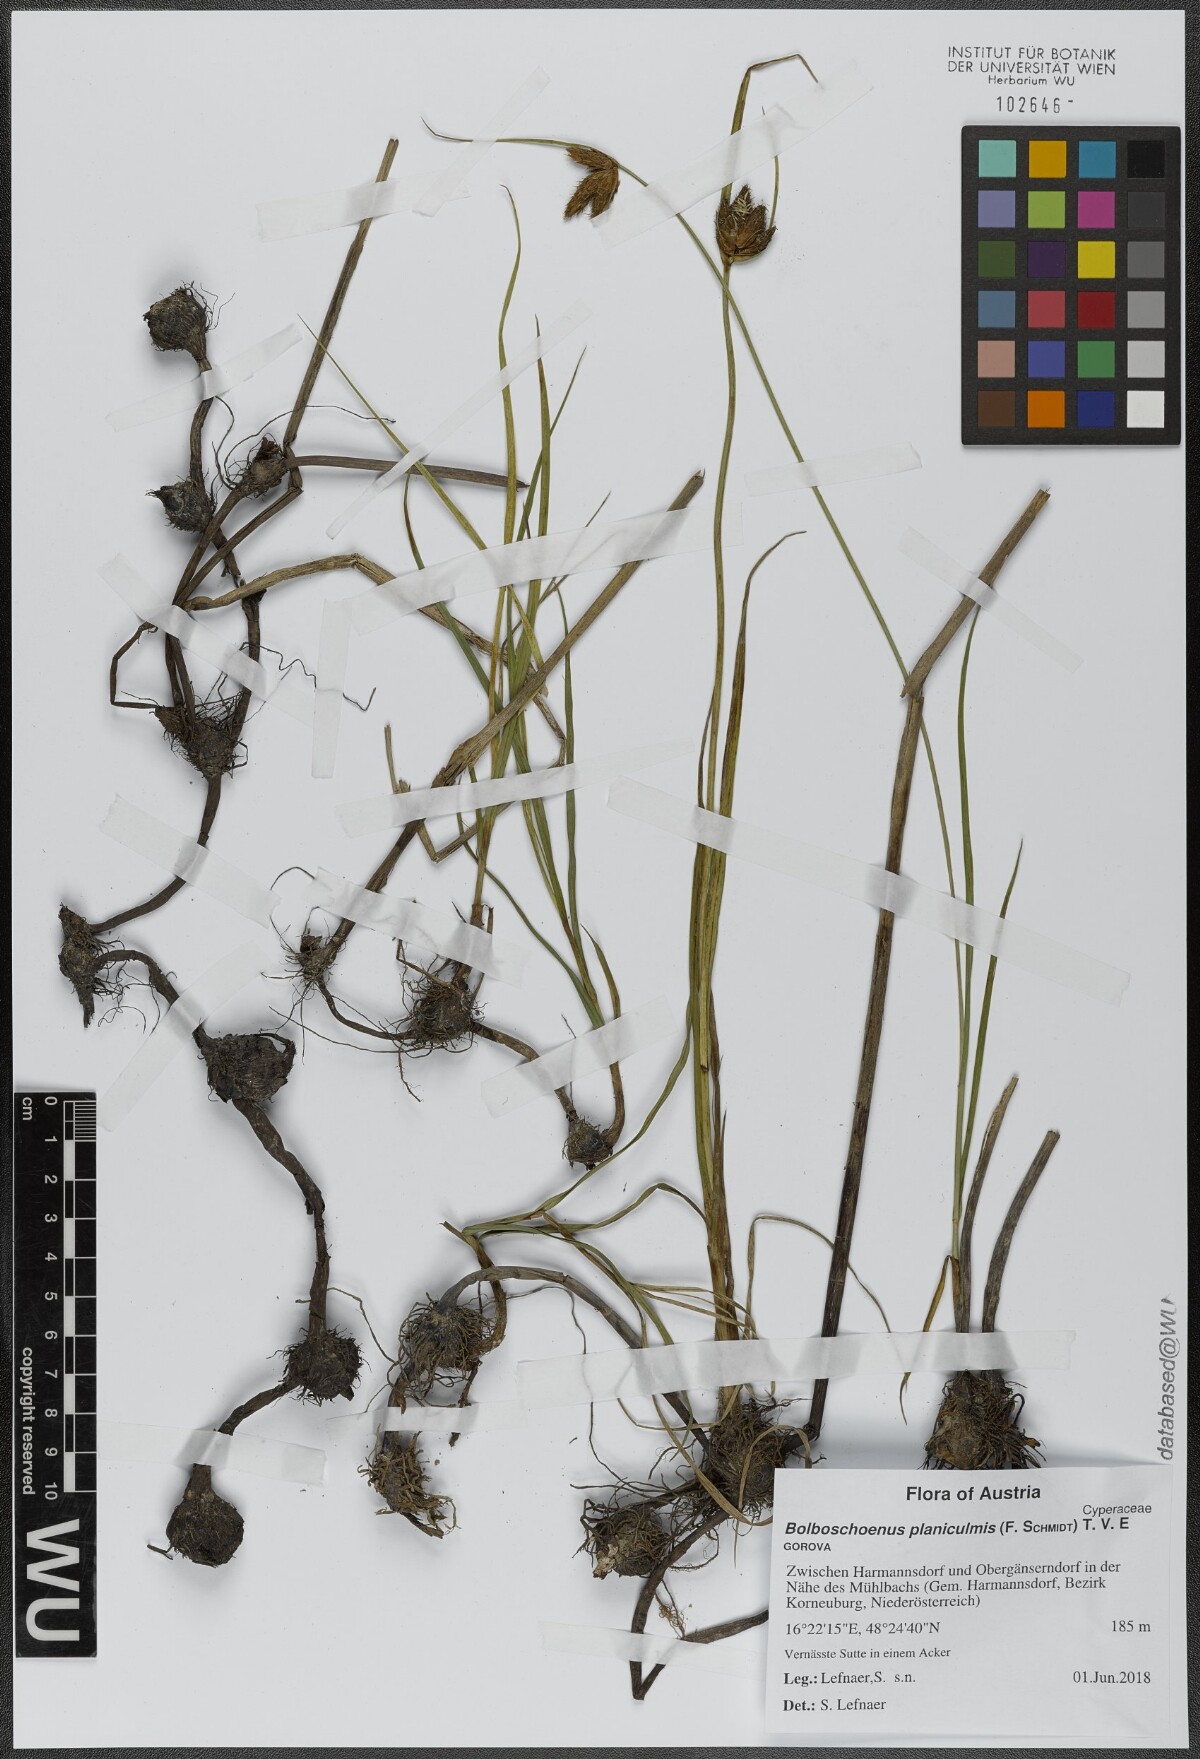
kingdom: Plantae
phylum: Tracheophyta
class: Liliopsida
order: Poales
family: Cyperaceae
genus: Bolboschoenus
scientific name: Bolboschoenus planiculmis
